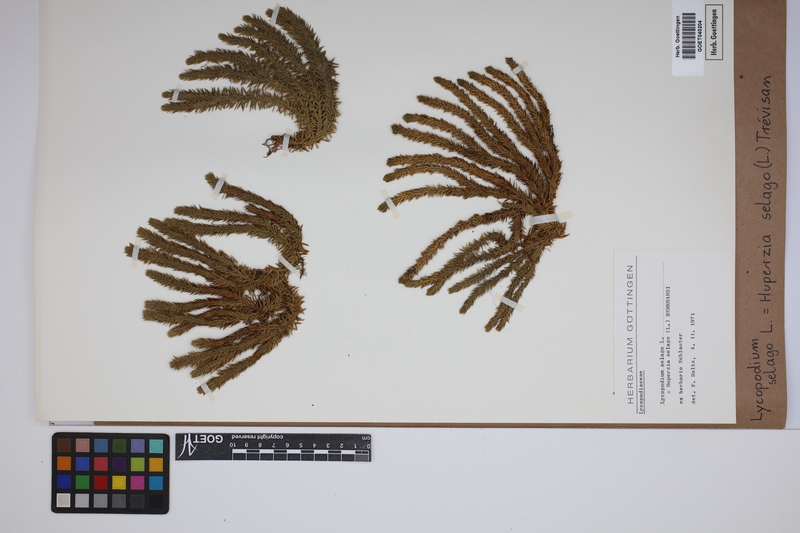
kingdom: Plantae
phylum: Tracheophyta
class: Lycopodiopsida
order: Lycopodiales
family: Lycopodiaceae
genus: Huperzia
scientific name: Huperzia selago
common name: Northern firmoss
